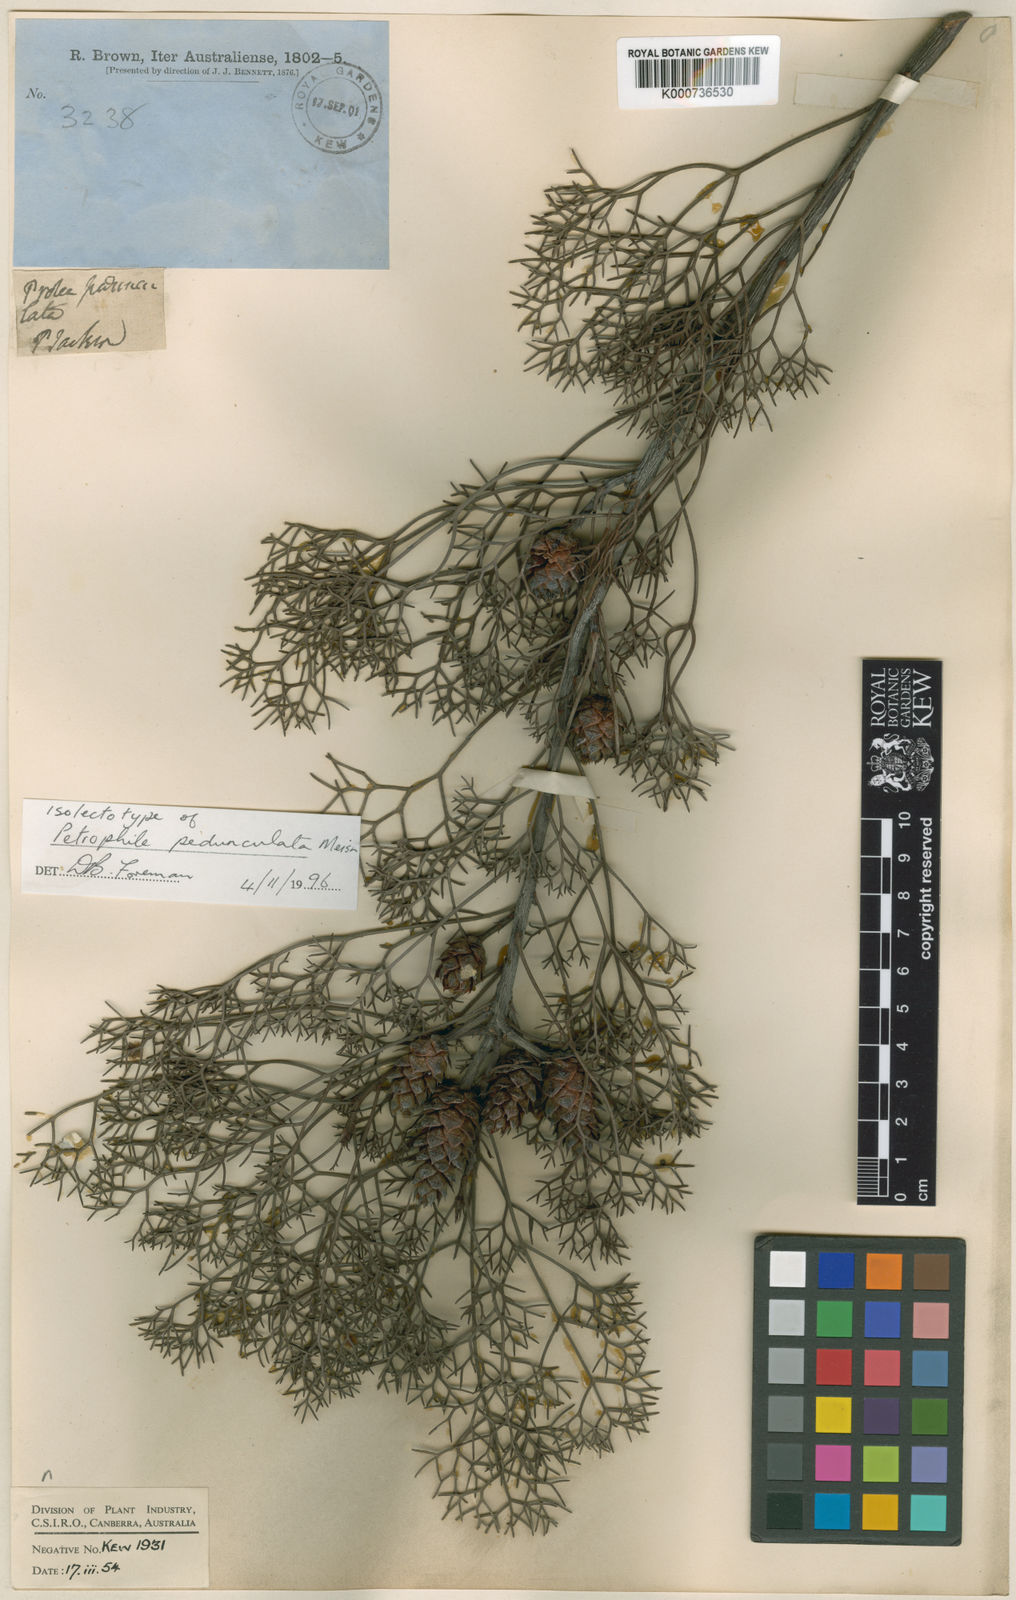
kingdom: Plantae
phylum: Tracheophyta
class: Magnoliopsida
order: Proteales
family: Proteaceae
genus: Petrophile
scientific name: Petrophile
